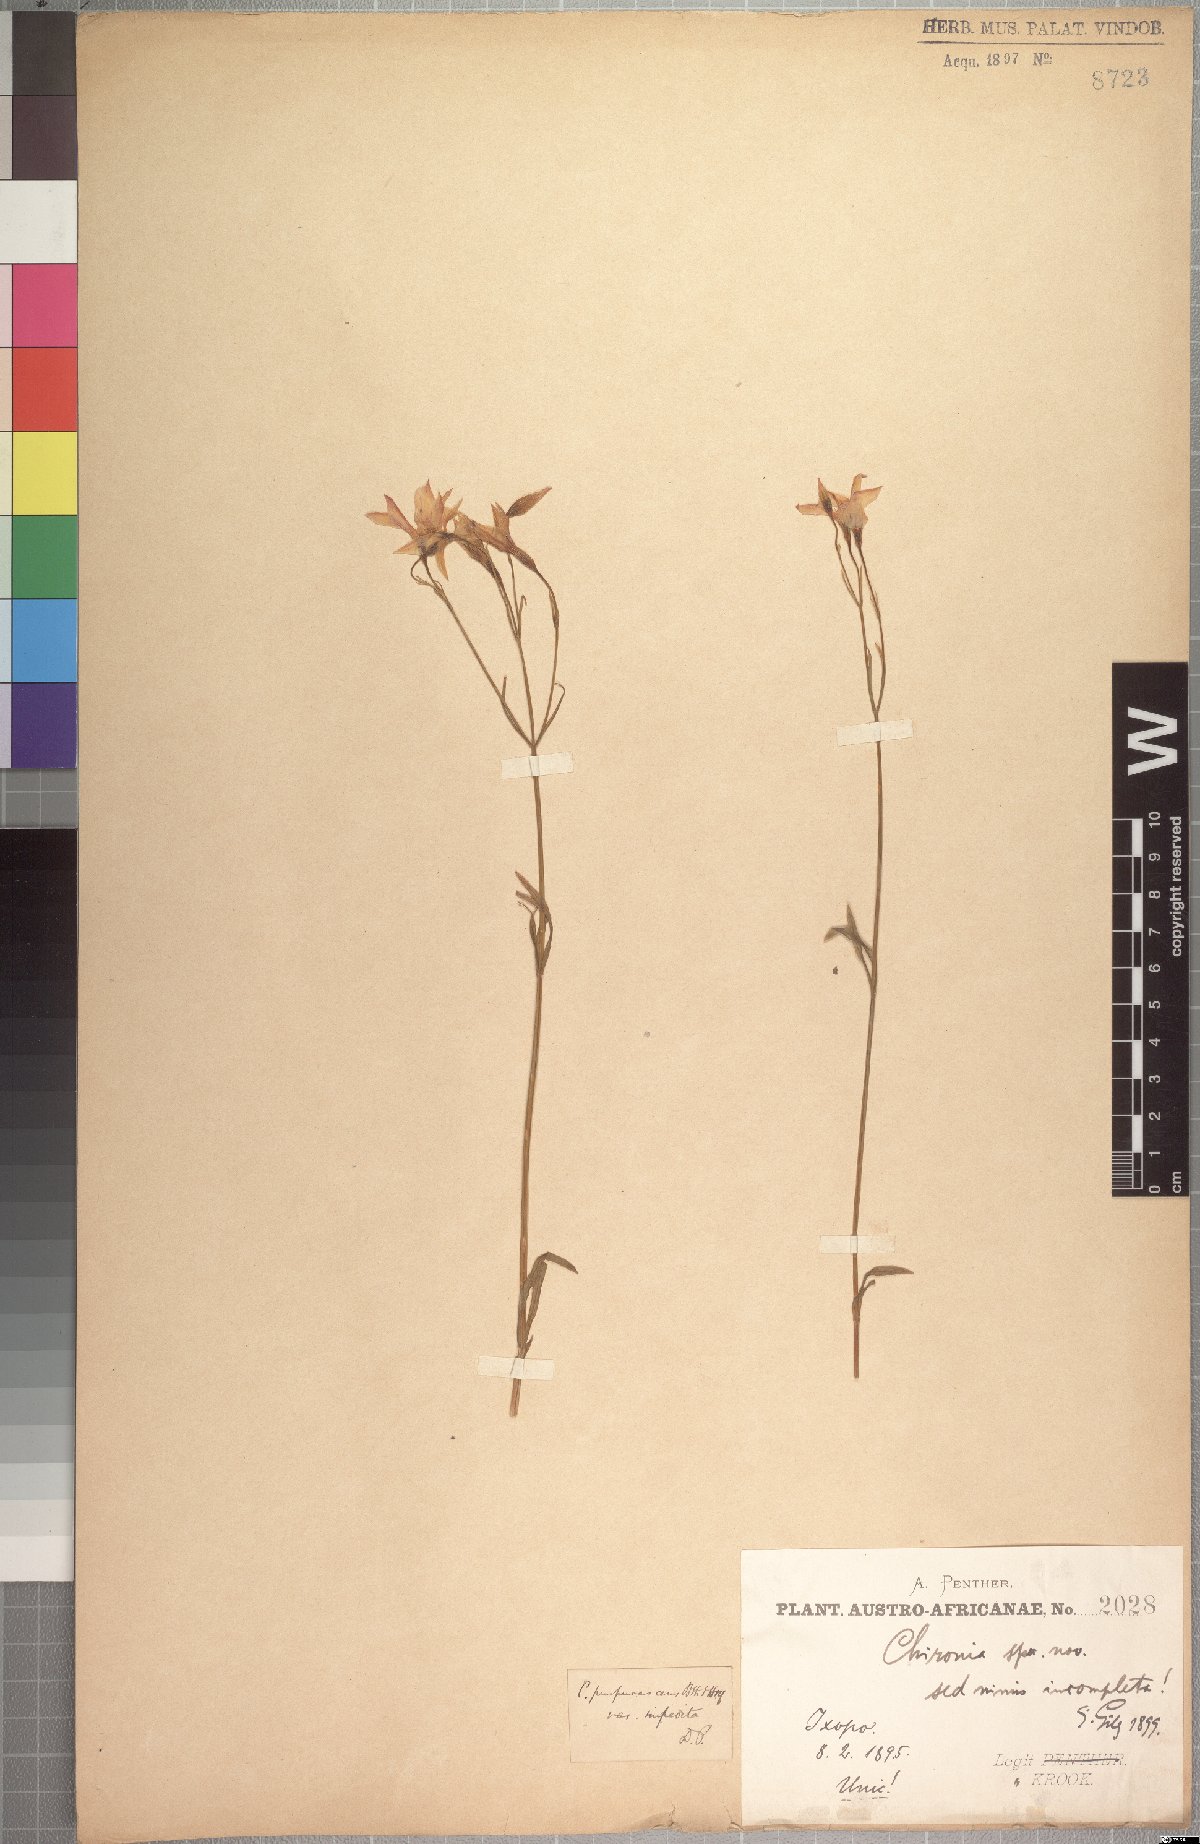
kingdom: Plantae
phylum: Tracheophyta
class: Magnoliopsida
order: Gentianales
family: Gentianaceae
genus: Chironia
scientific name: Chironia purpurascens
